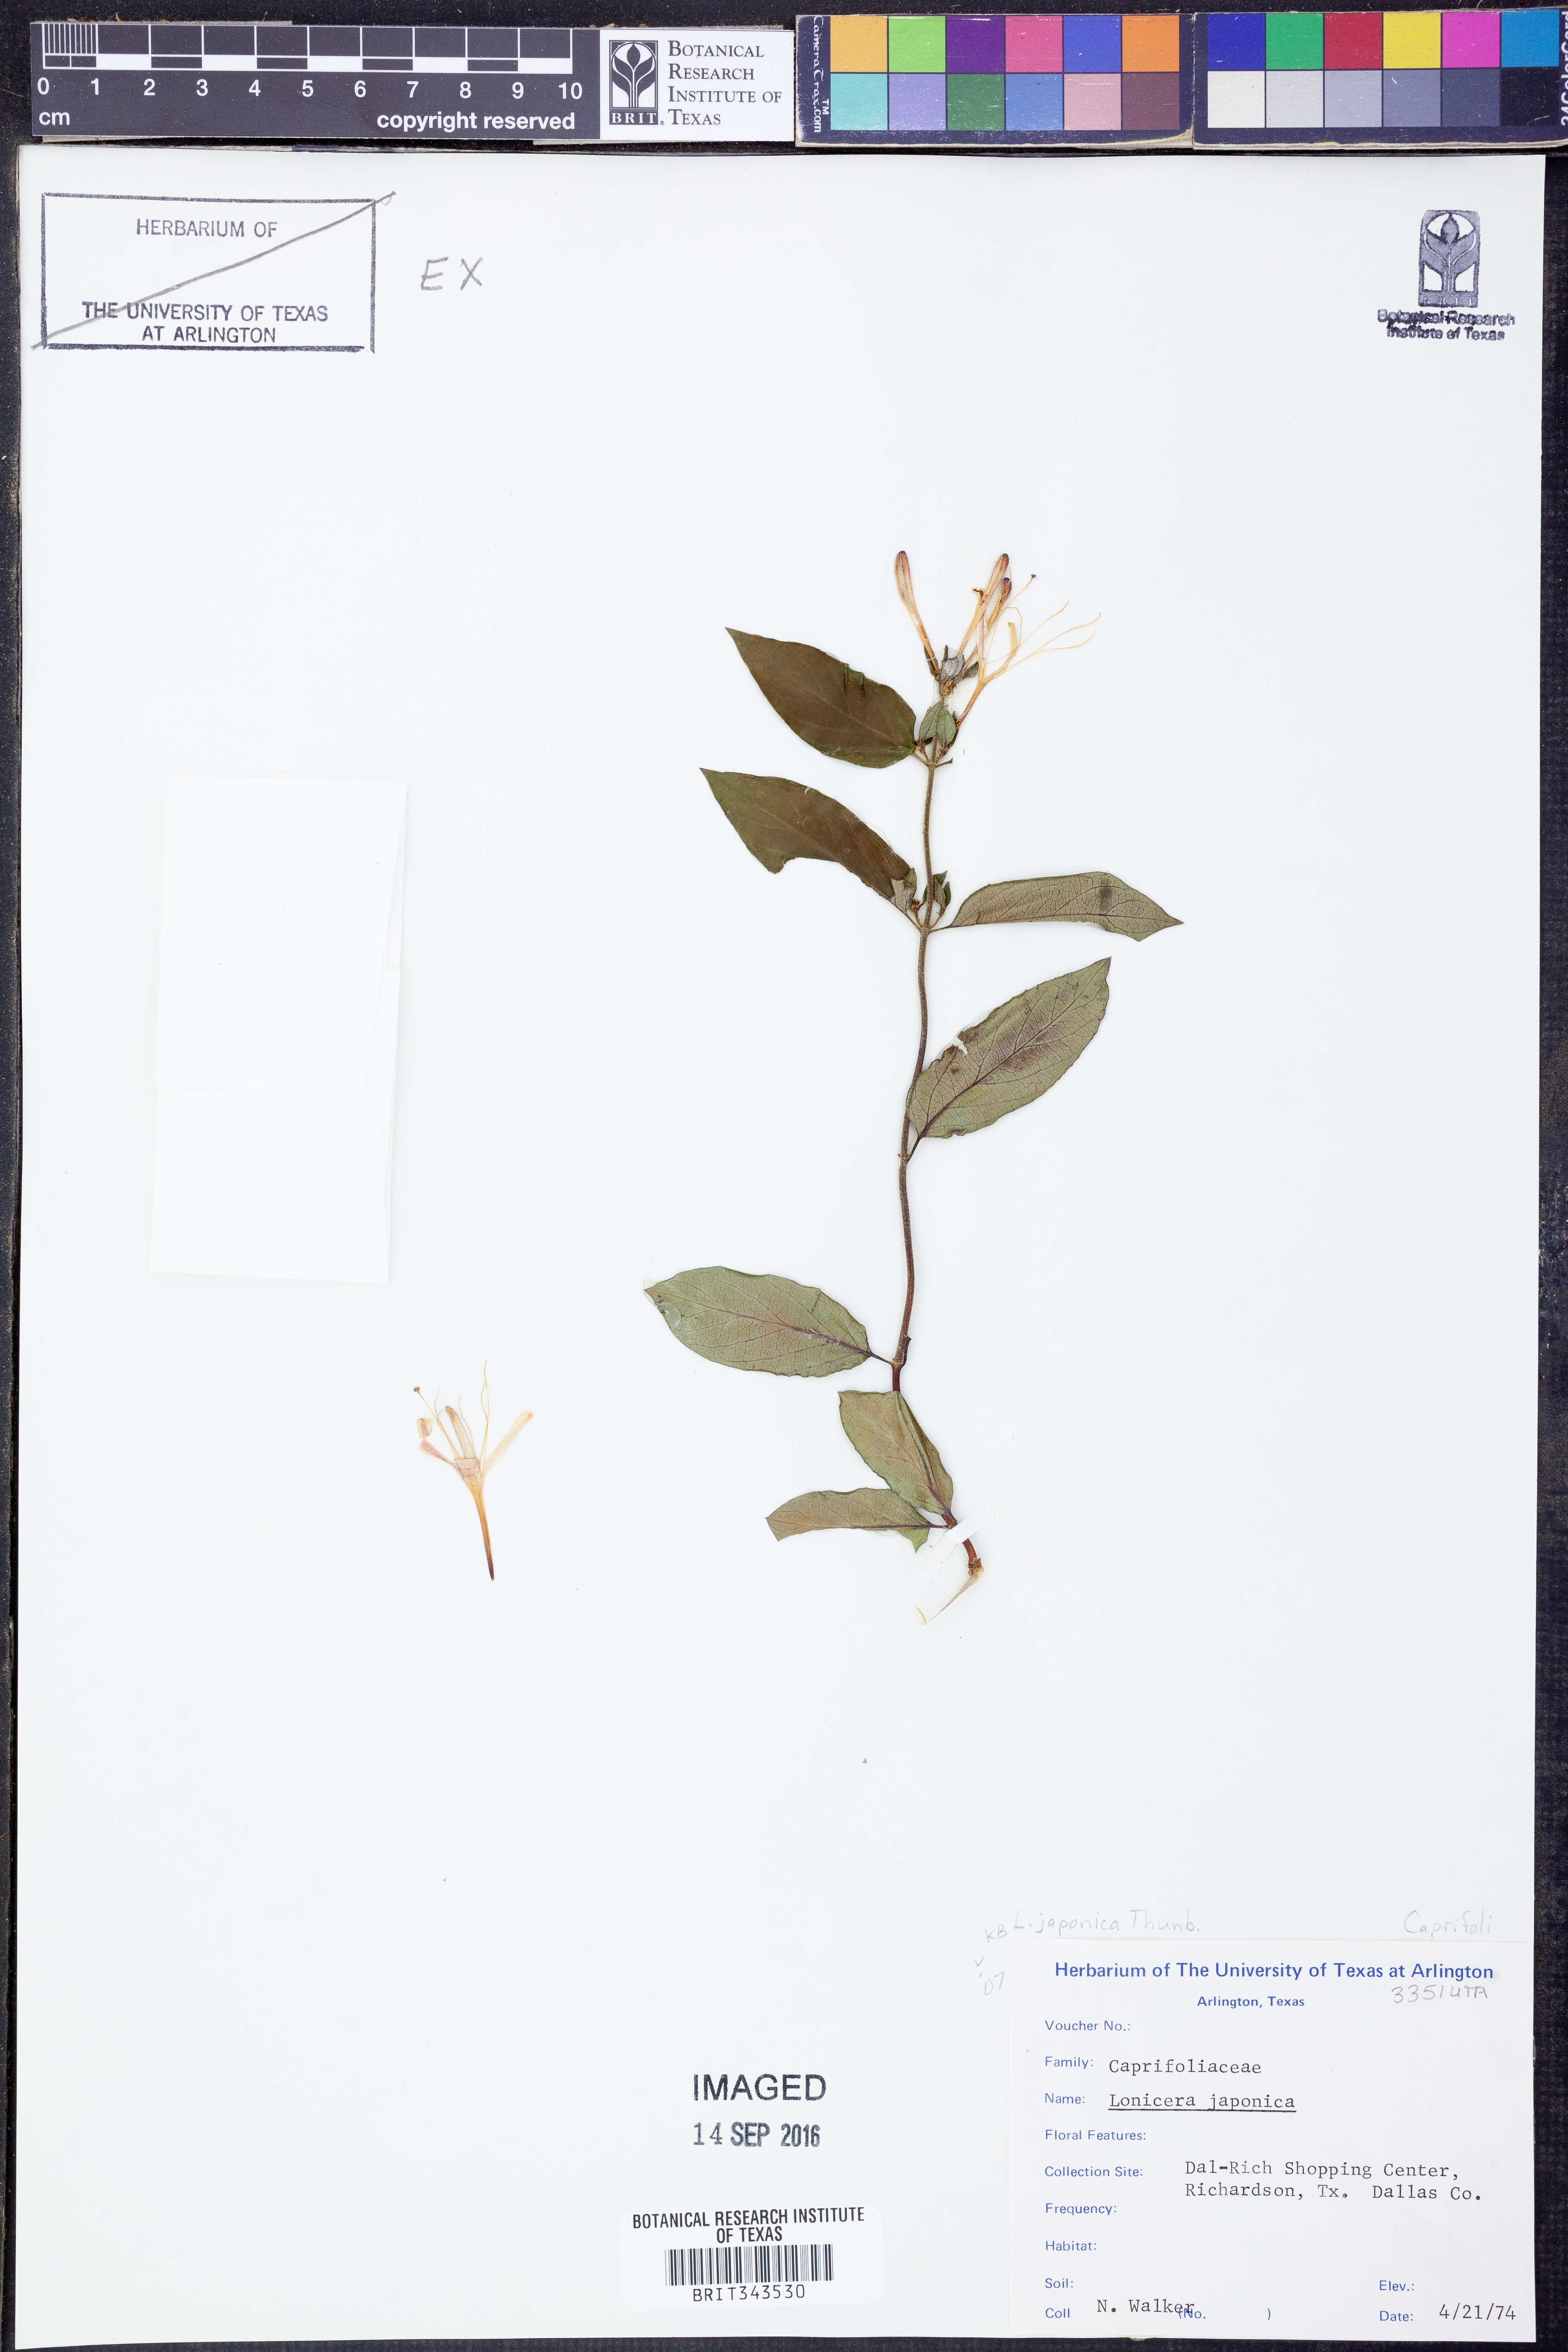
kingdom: Plantae
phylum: Tracheophyta
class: Magnoliopsida
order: Dipsacales
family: Caprifoliaceae
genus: Lonicera
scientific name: Lonicera japonica
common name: Japanese honeysuckle
